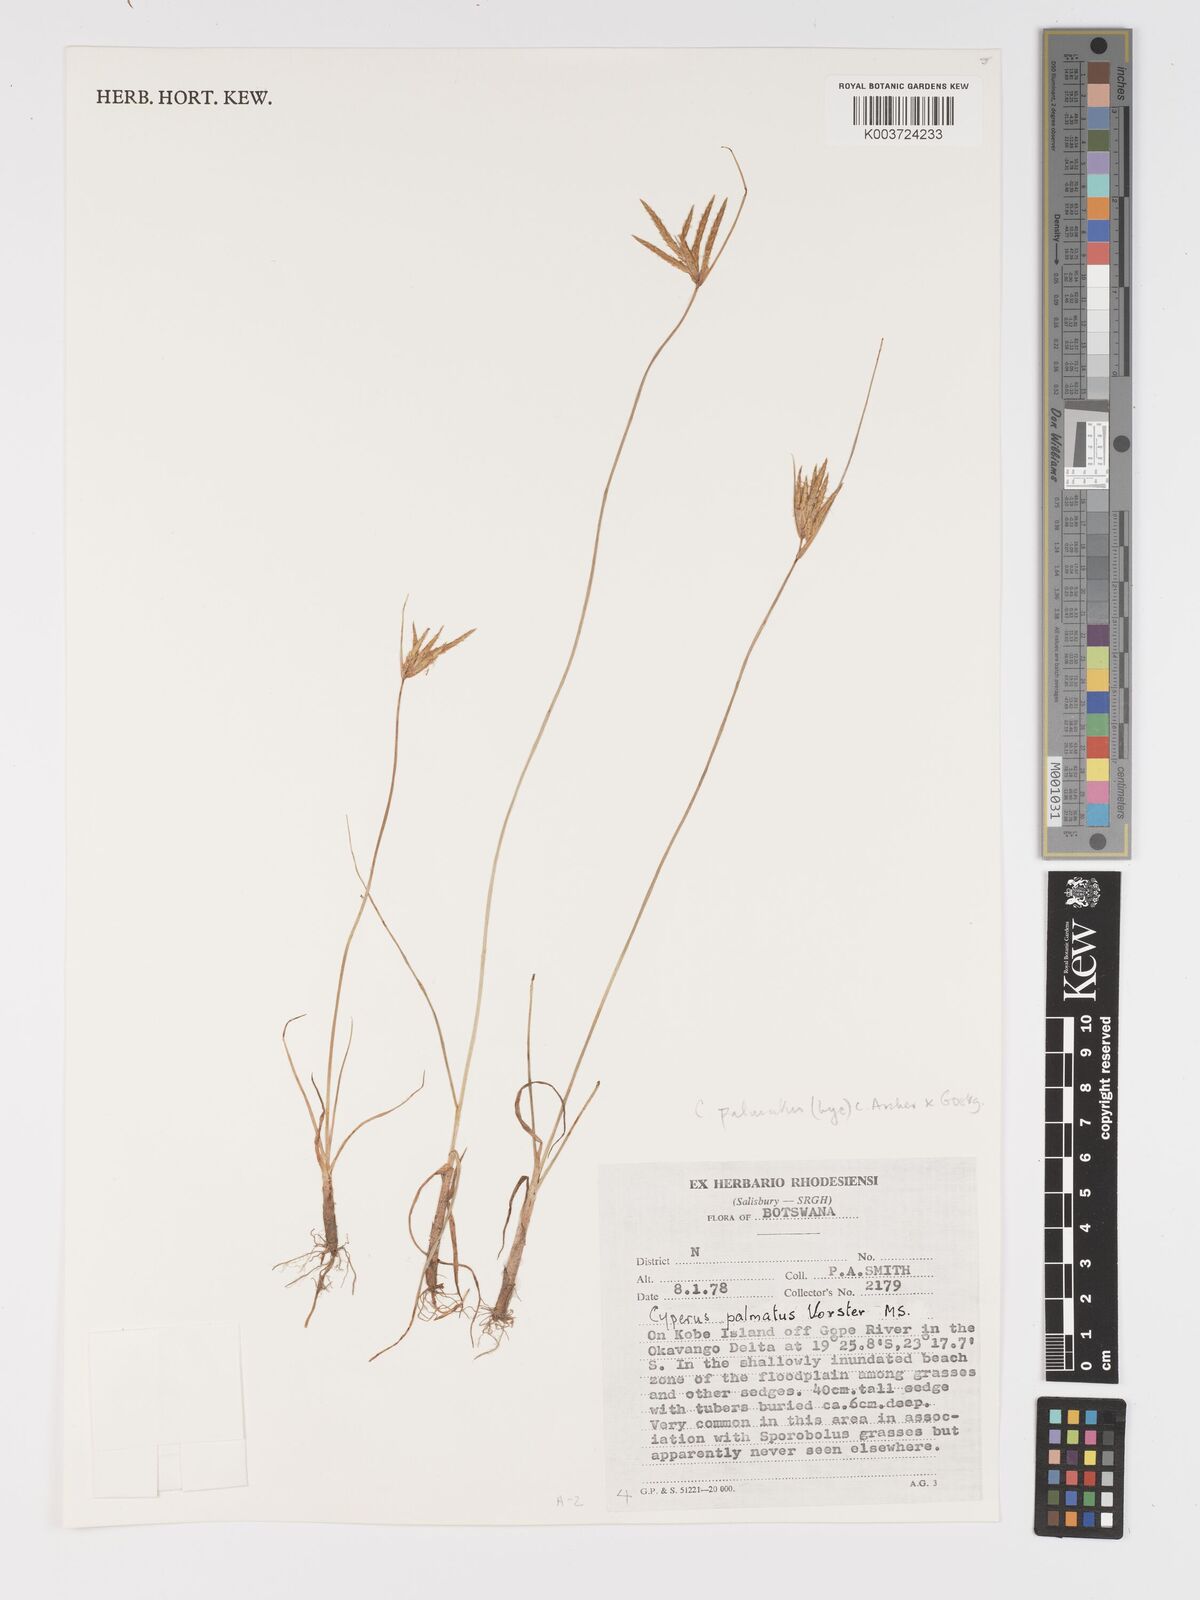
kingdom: Plantae
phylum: Tracheophyta
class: Liliopsida
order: Poales
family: Cyperaceae
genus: Cyperus
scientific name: Cyperus palmatus
